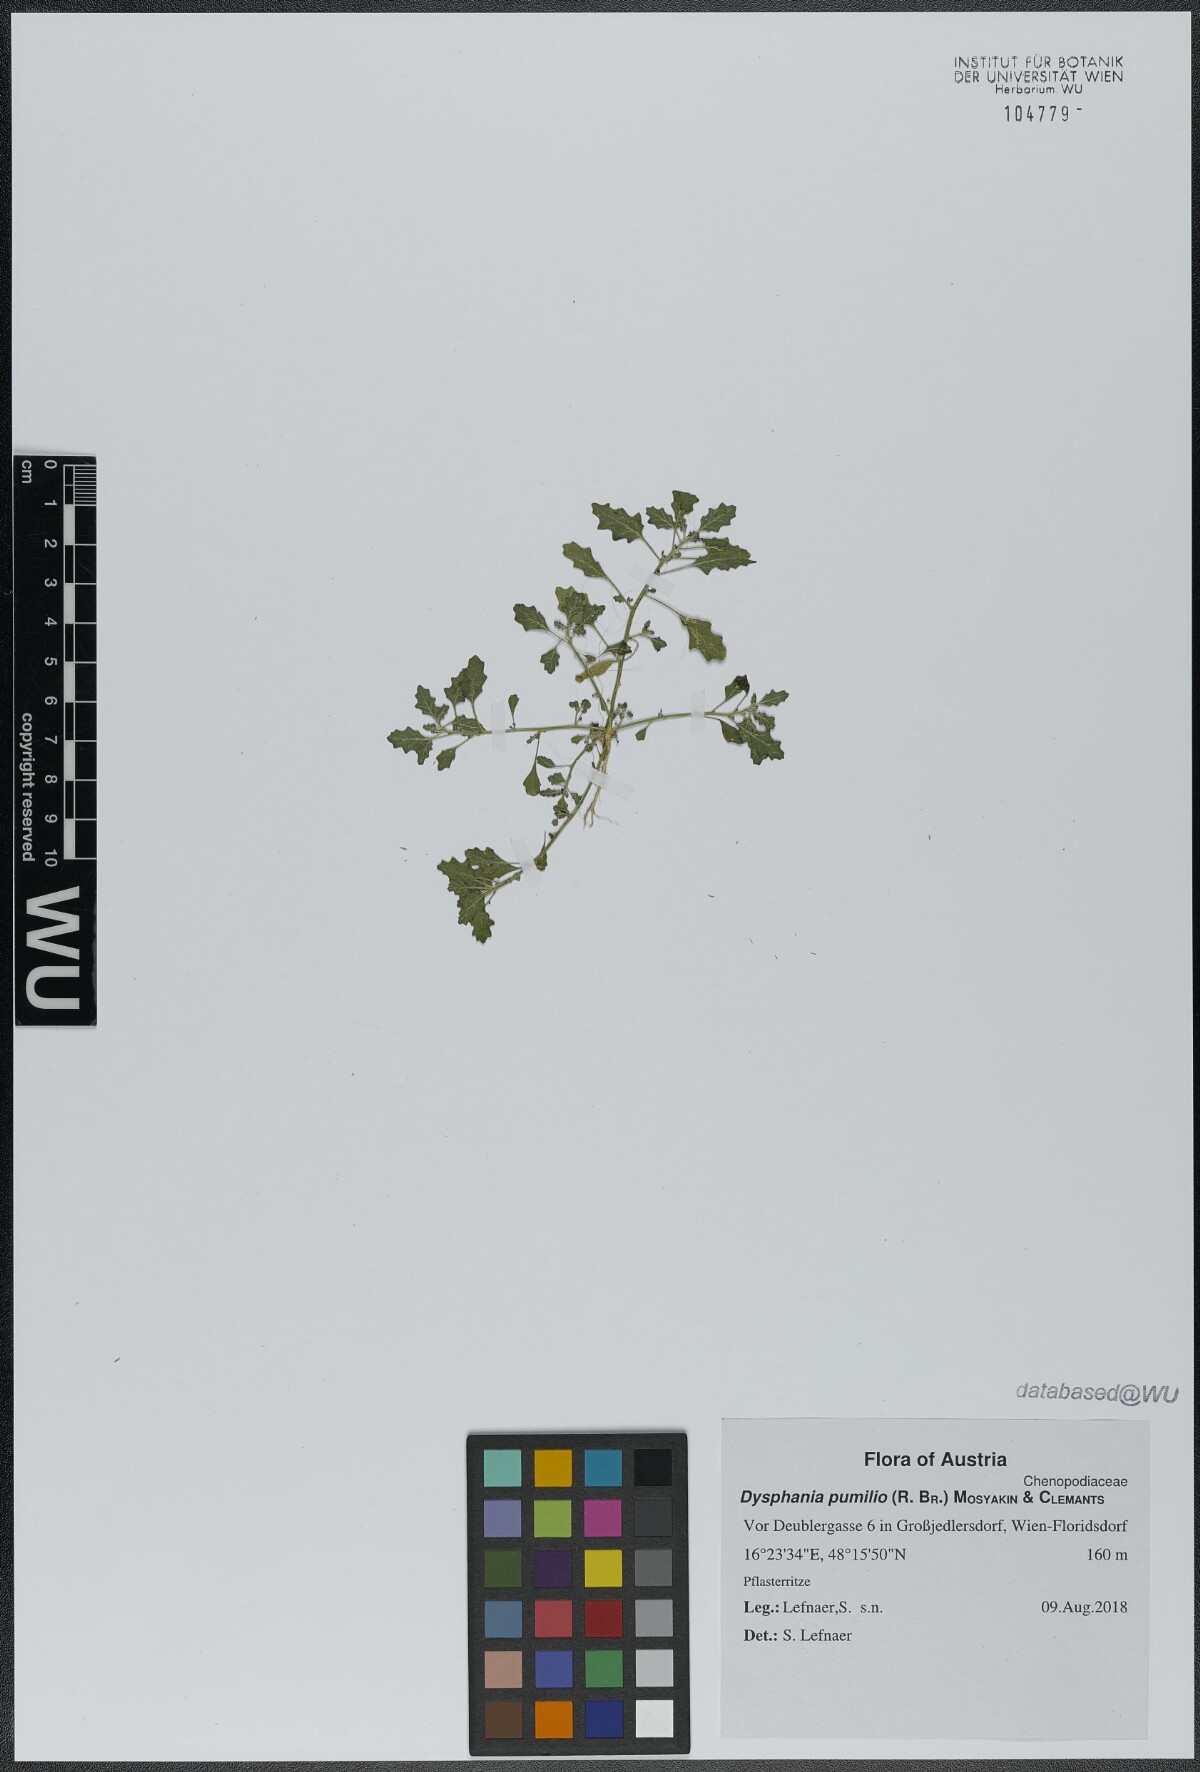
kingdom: Plantae
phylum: Tracheophyta
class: Magnoliopsida
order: Caryophyllales
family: Amaranthaceae
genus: Dysphania
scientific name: Dysphania pumilio
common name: Clammy goosefoot
